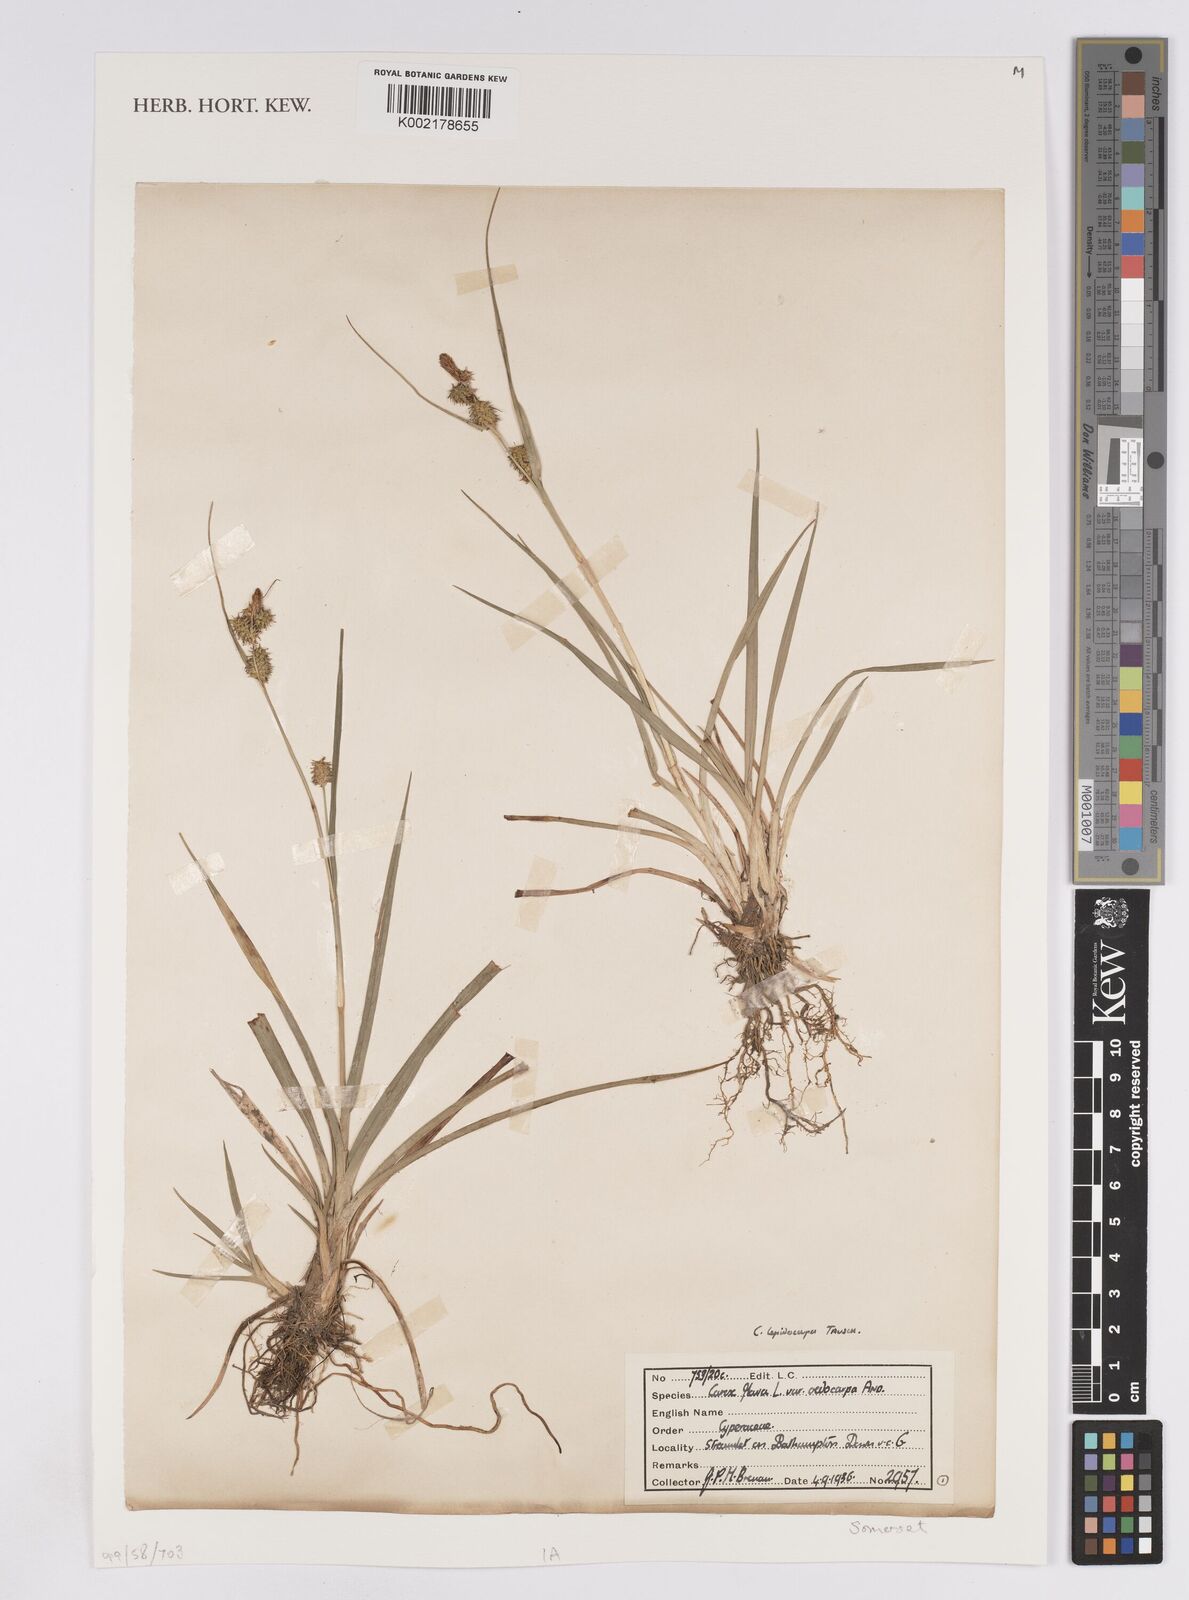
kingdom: Plantae
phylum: Tracheophyta
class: Liliopsida
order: Poales
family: Cyperaceae
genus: Carex
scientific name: Carex lepidocarpa
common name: Long-stalked yellow-sedge
